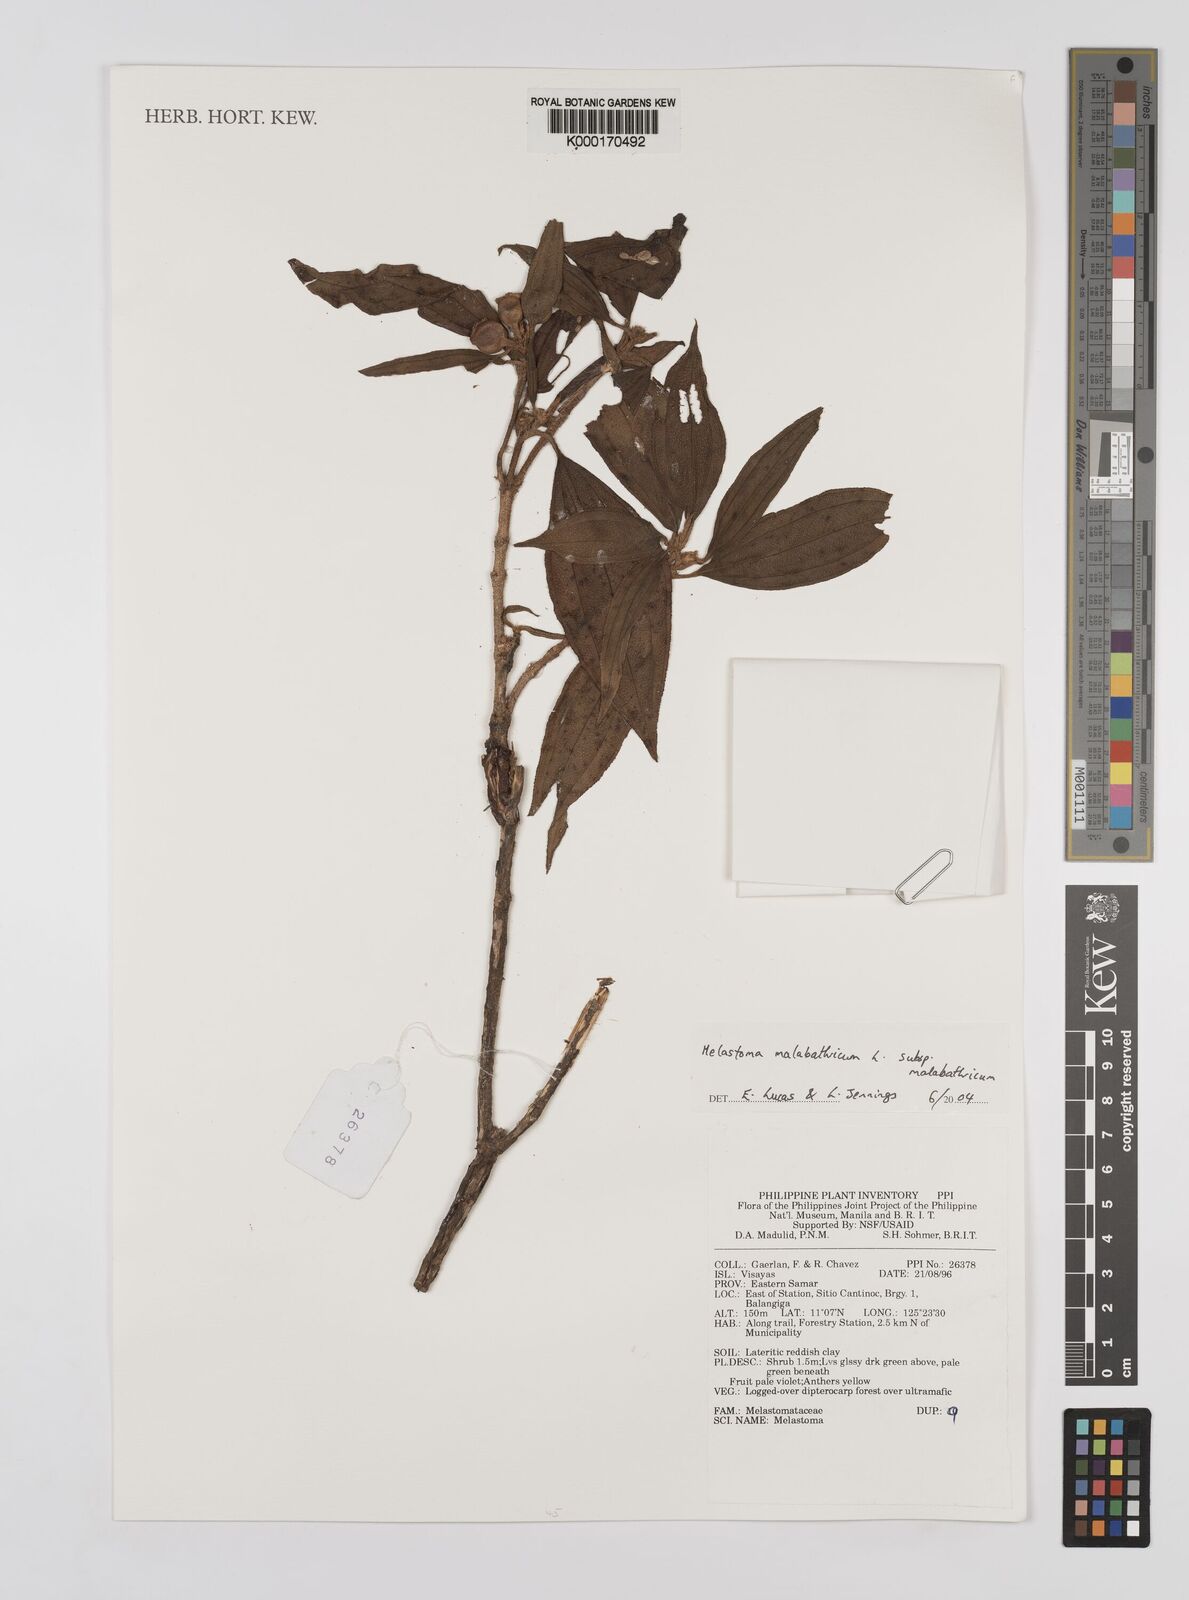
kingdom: Plantae
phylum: Tracheophyta
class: Magnoliopsida
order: Myrtales
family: Melastomataceae
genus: Melastoma
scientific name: Melastoma malabathricum
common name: Indian-rhododendron
